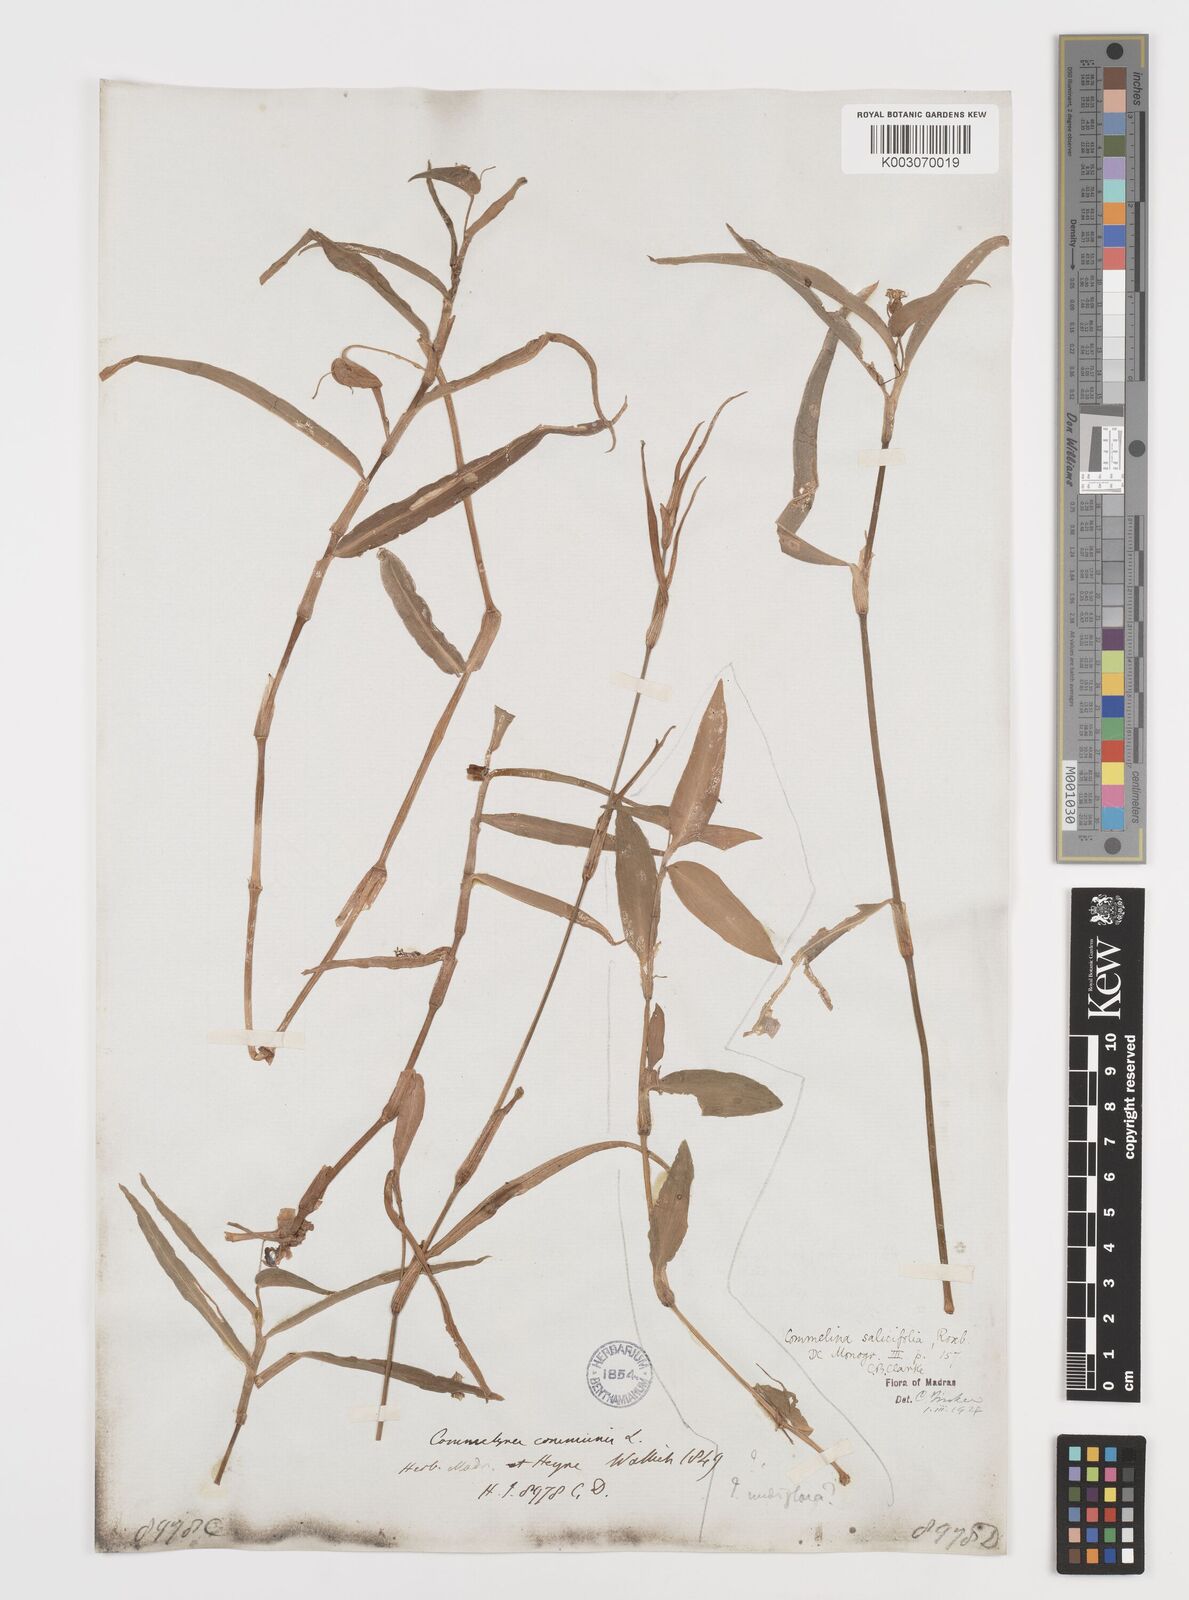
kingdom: Plantae
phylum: Tracheophyta
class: Liliopsida
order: Commelinales
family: Commelinaceae
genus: Commelina
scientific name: Commelina caroliniana
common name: Carolina dayflower
